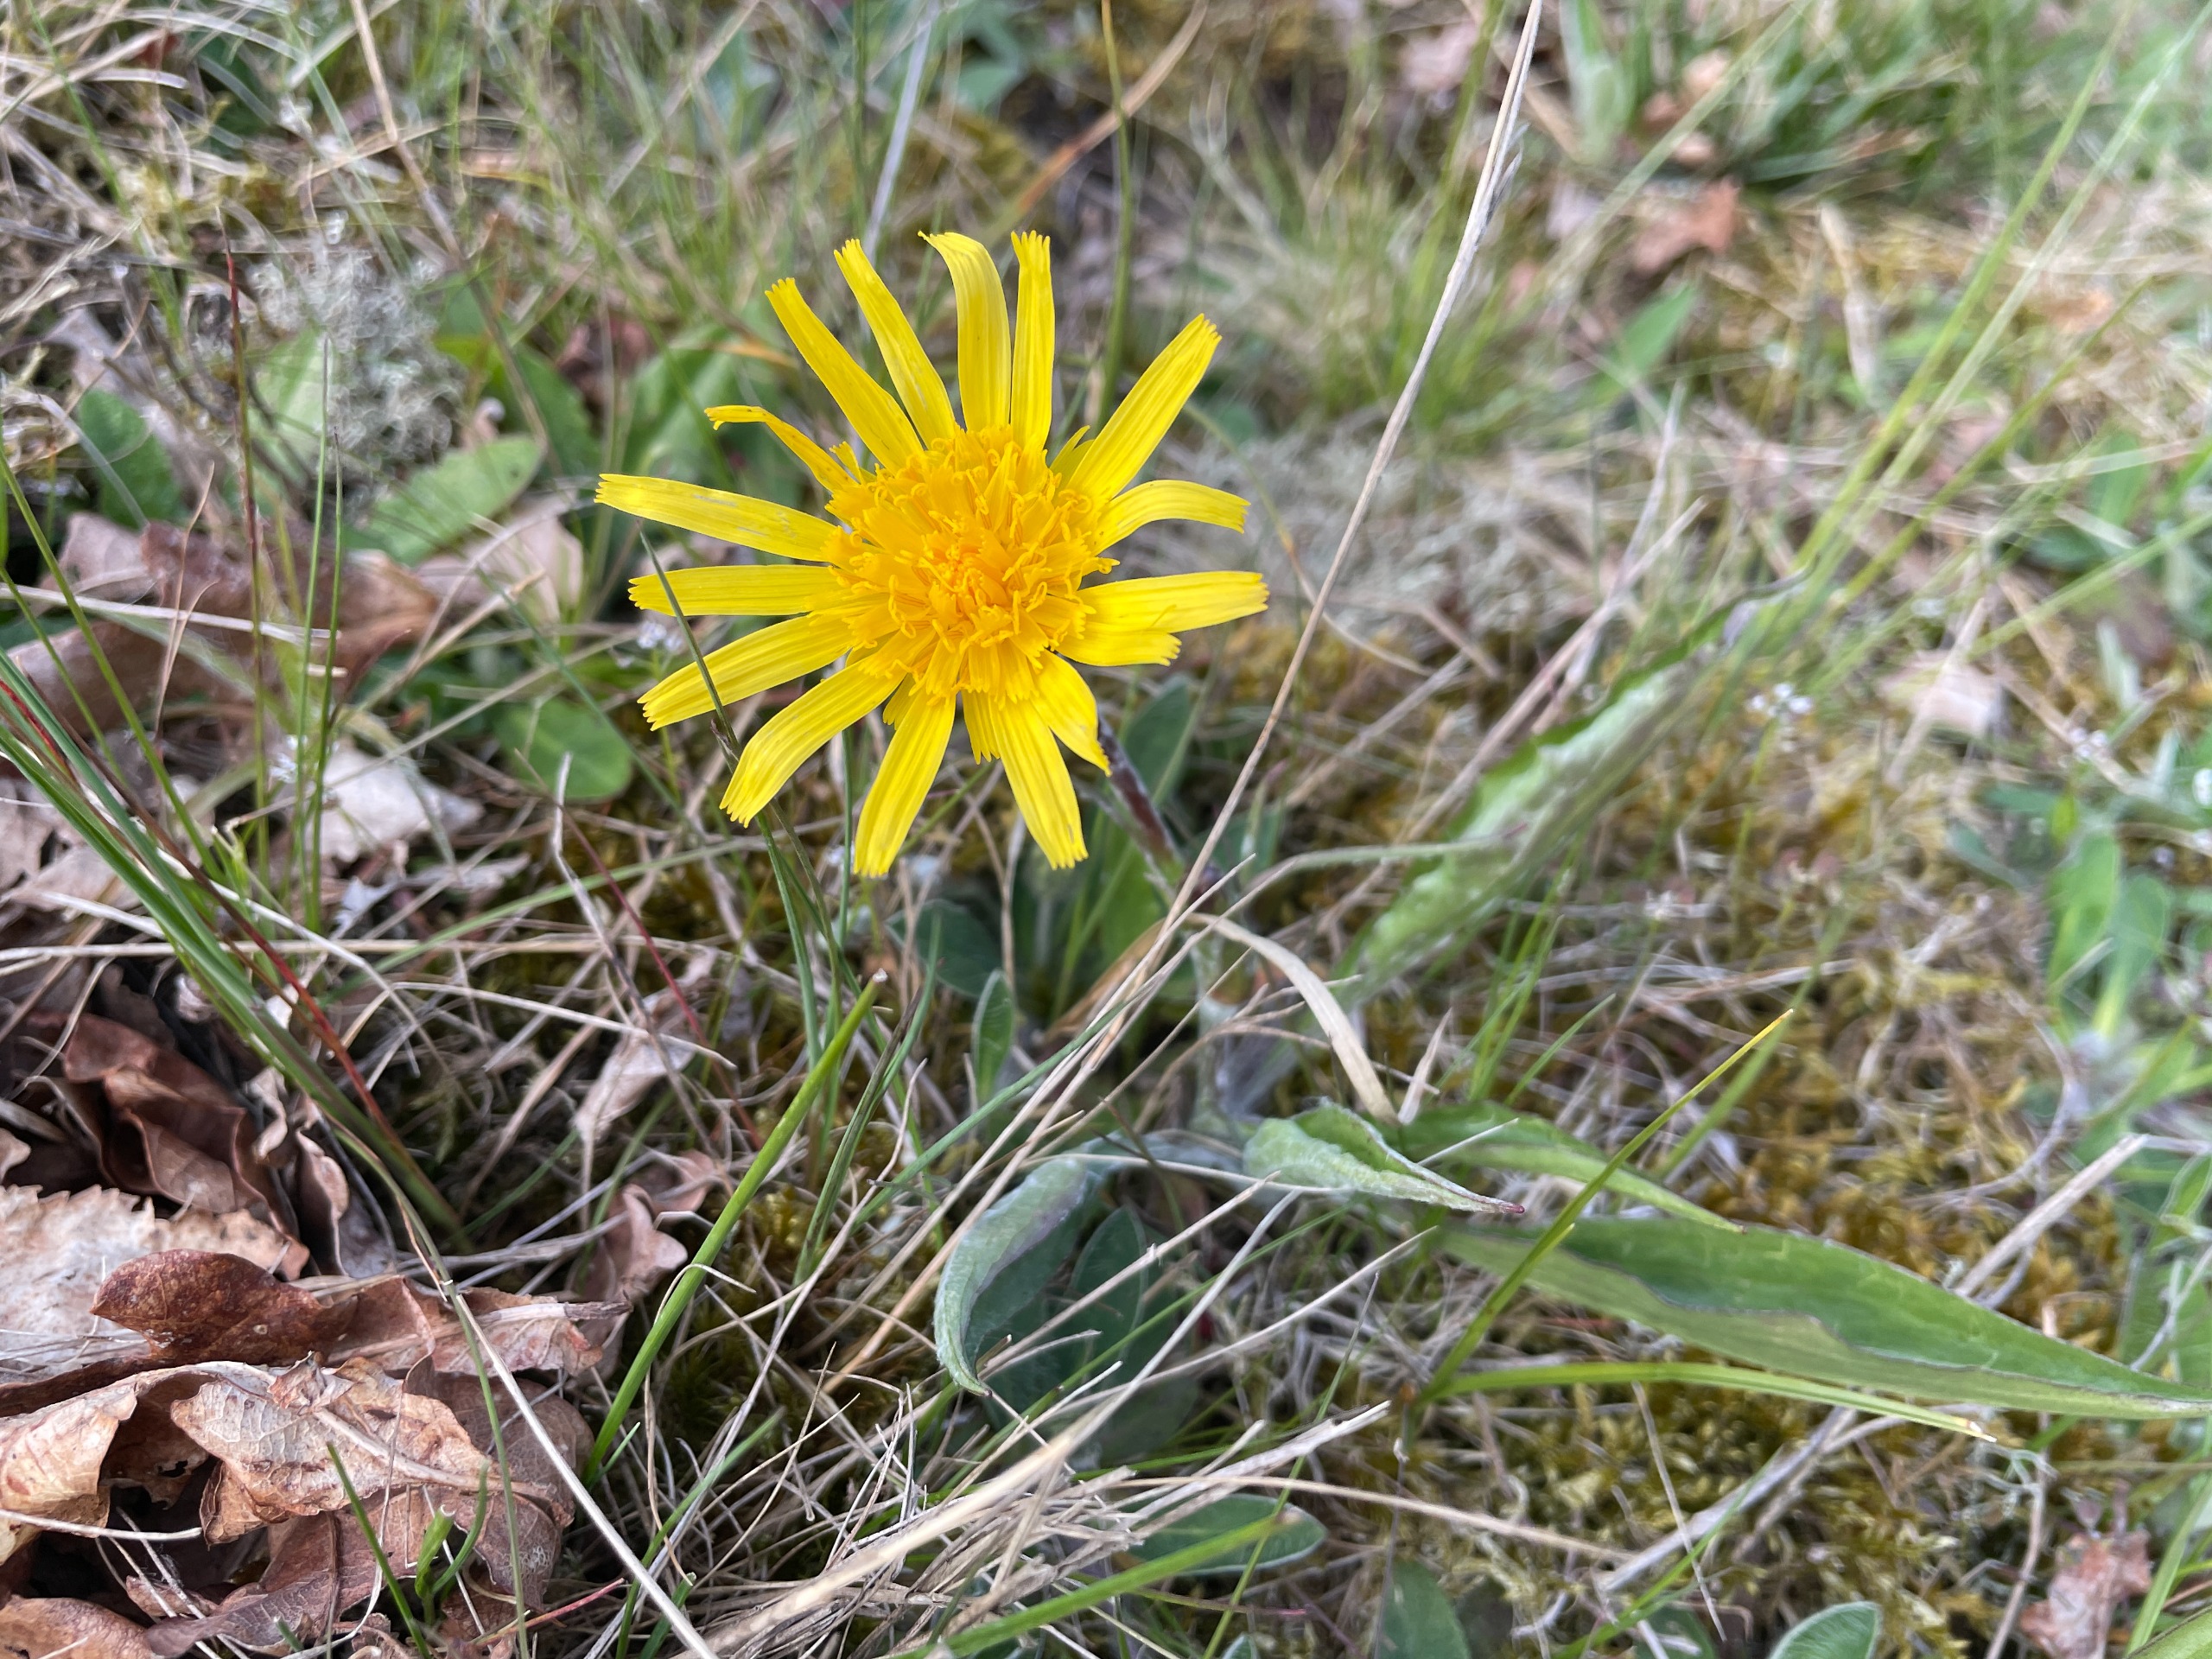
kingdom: Plantae
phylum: Tracheophyta
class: Magnoliopsida
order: Asterales
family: Asteraceae
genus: Scorzonera
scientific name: Scorzonera humilis
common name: Lav skorsoner
